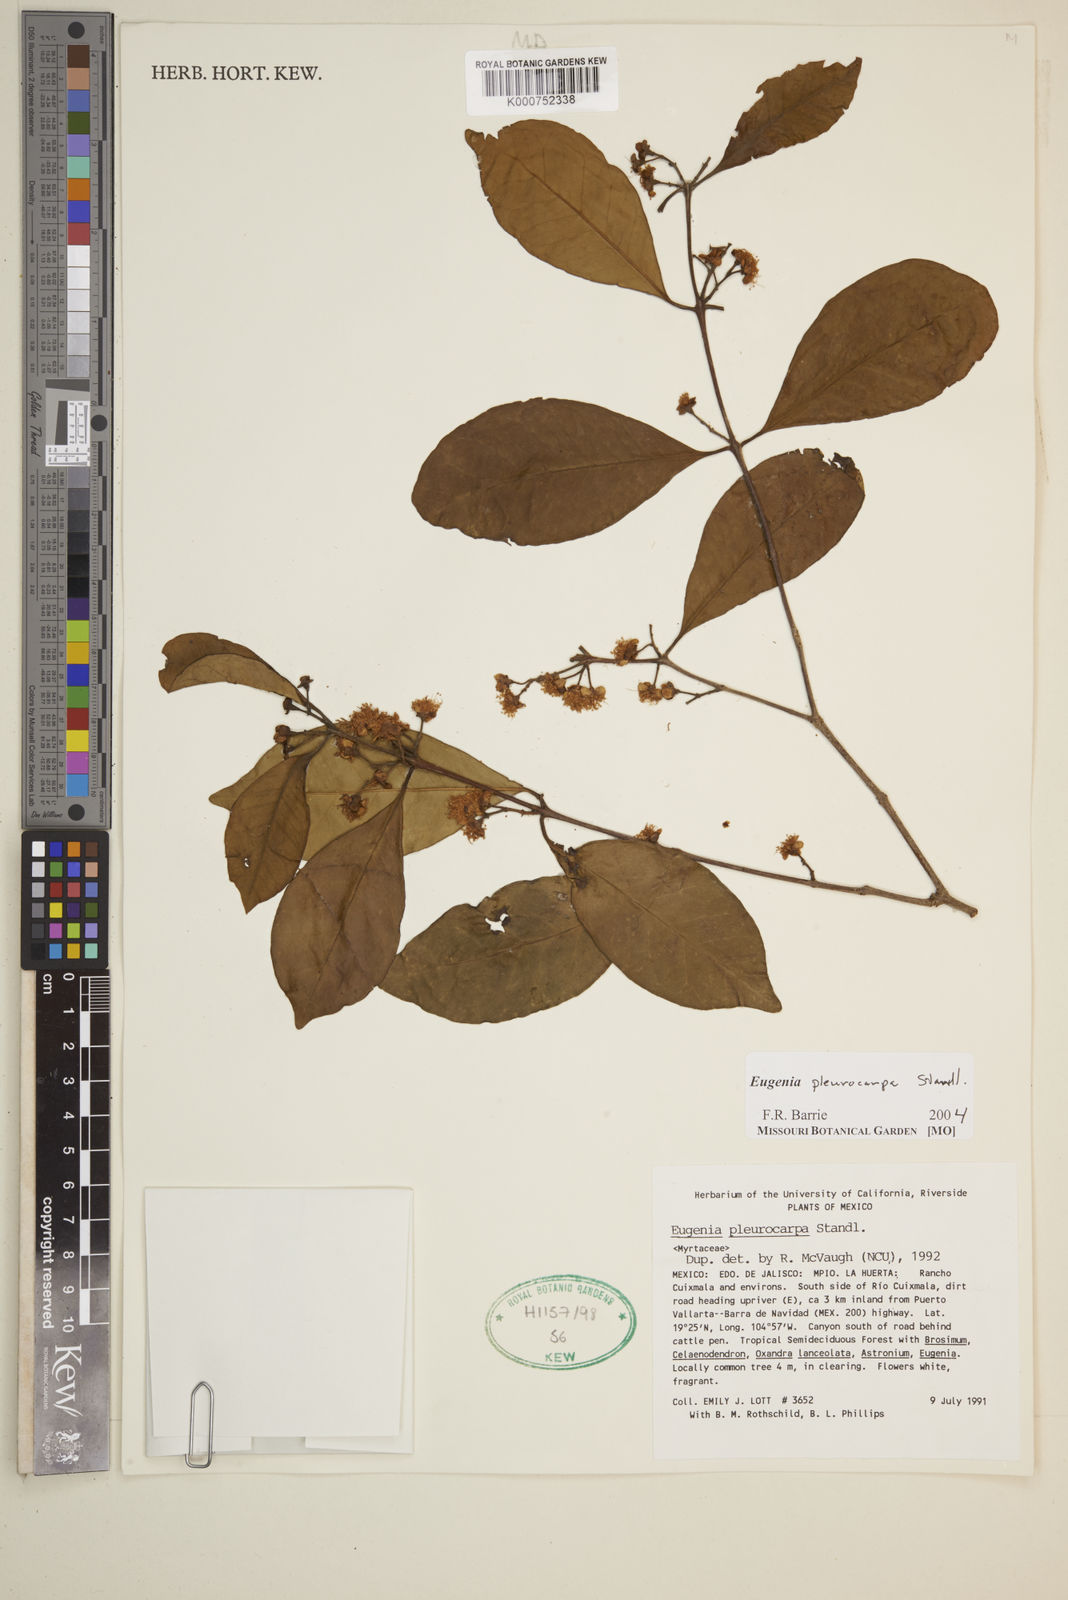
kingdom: Plantae
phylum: Tracheophyta
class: Magnoliopsida
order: Myrtales
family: Myrtaceae
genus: Eugenia
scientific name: Eugenia pleurocarpa
